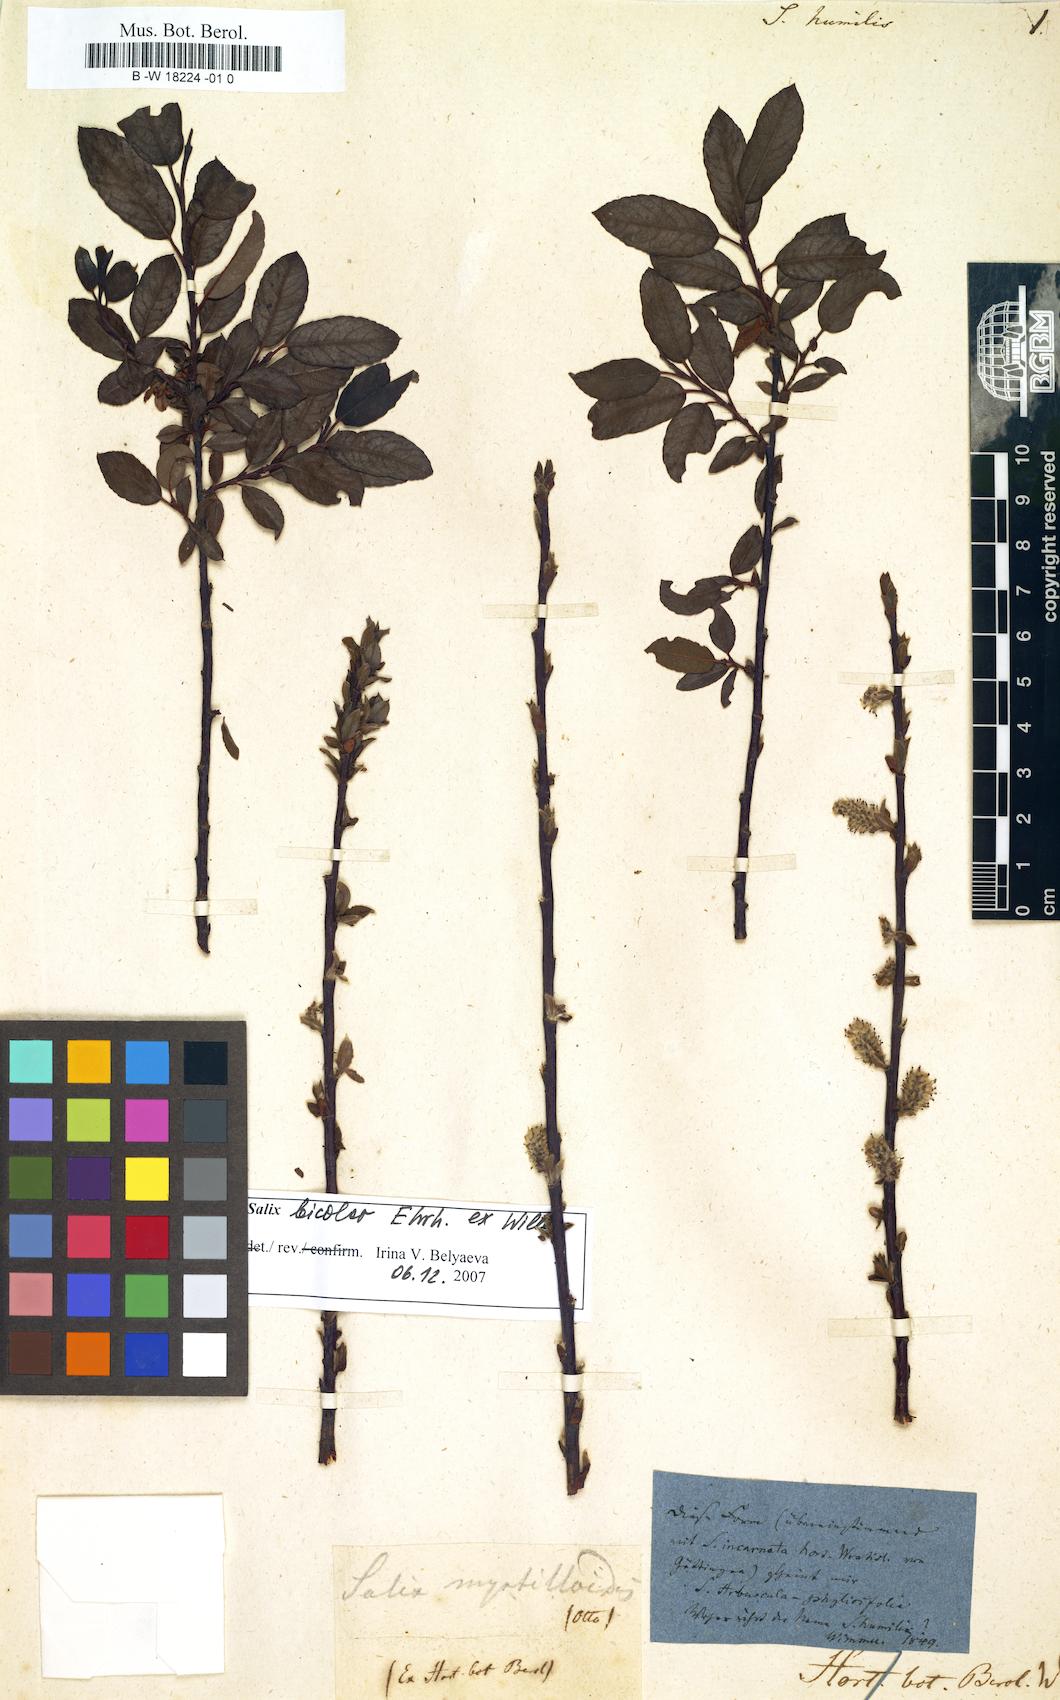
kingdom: Plantae
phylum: Tracheophyta
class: Magnoliopsida
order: Malpighiales
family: Salicaceae
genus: Salix
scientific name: Salix humilis
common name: Prairie willow
